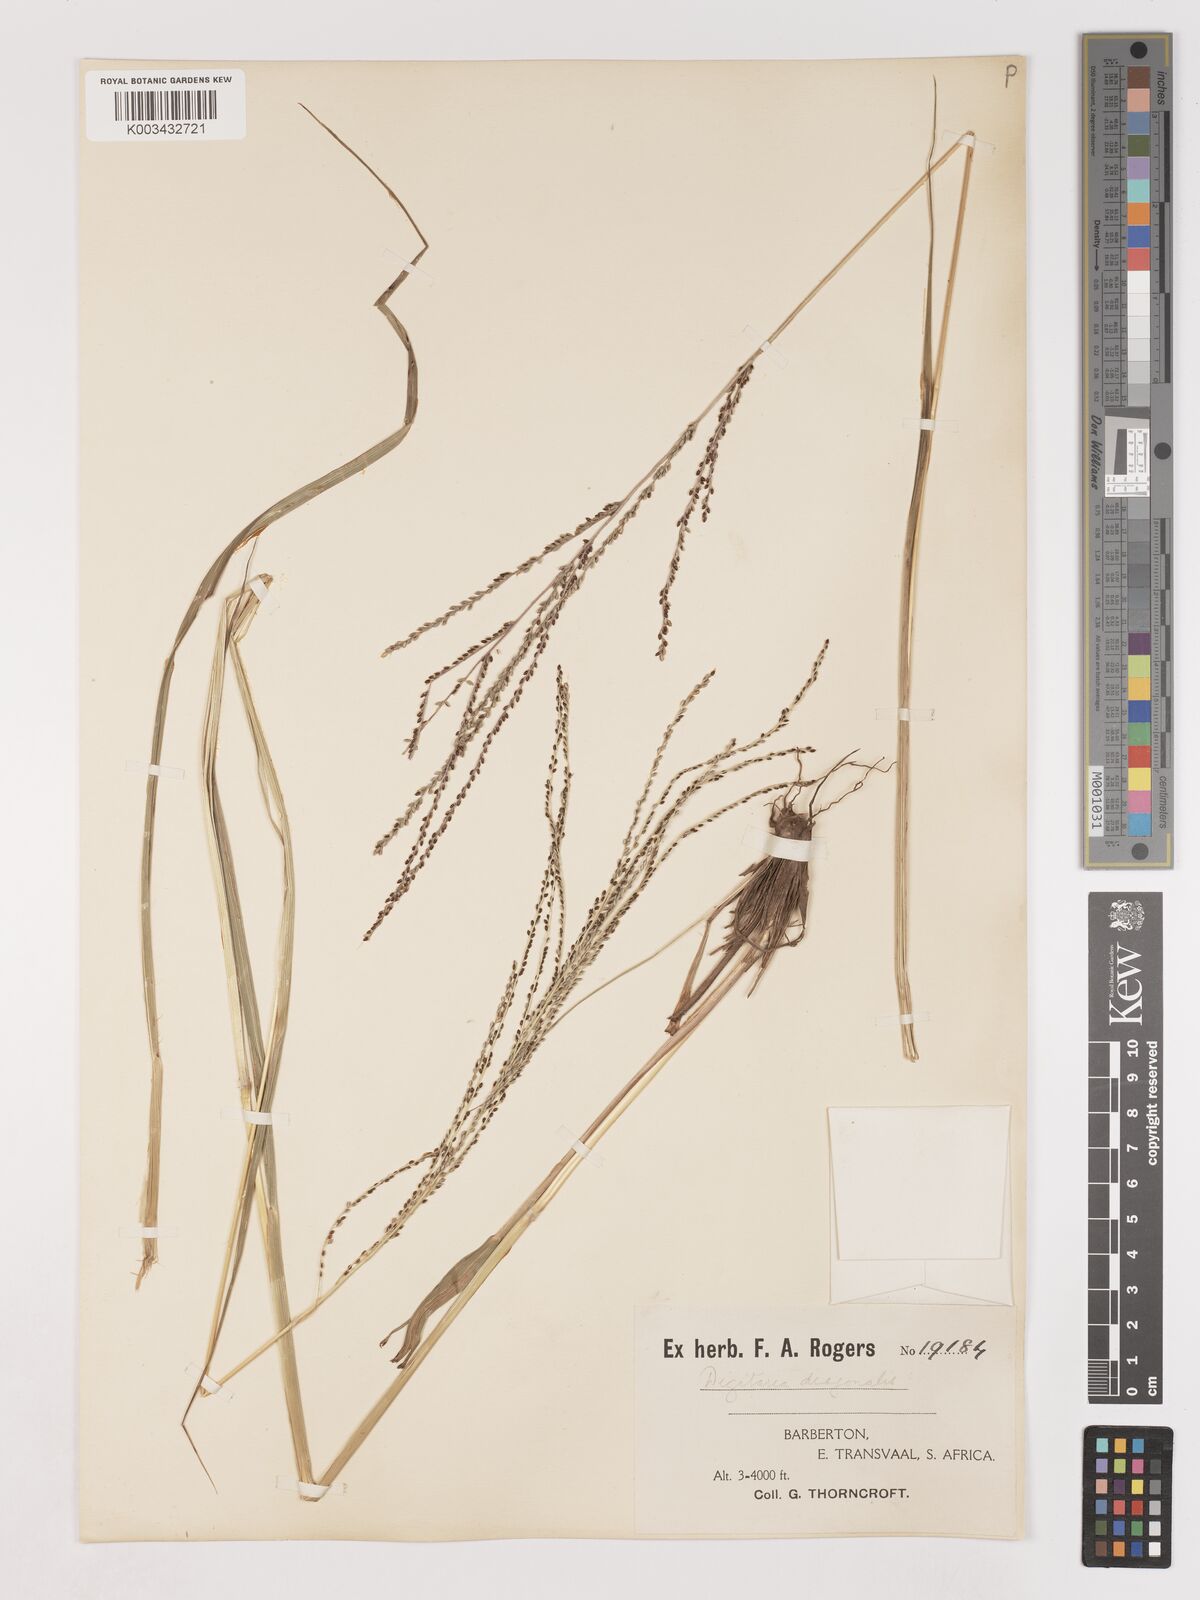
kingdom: Plantae
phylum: Tracheophyta
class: Liliopsida
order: Poales
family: Poaceae
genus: Digitaria
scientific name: Digitaria diagonalis
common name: Brown-seed finger grass
